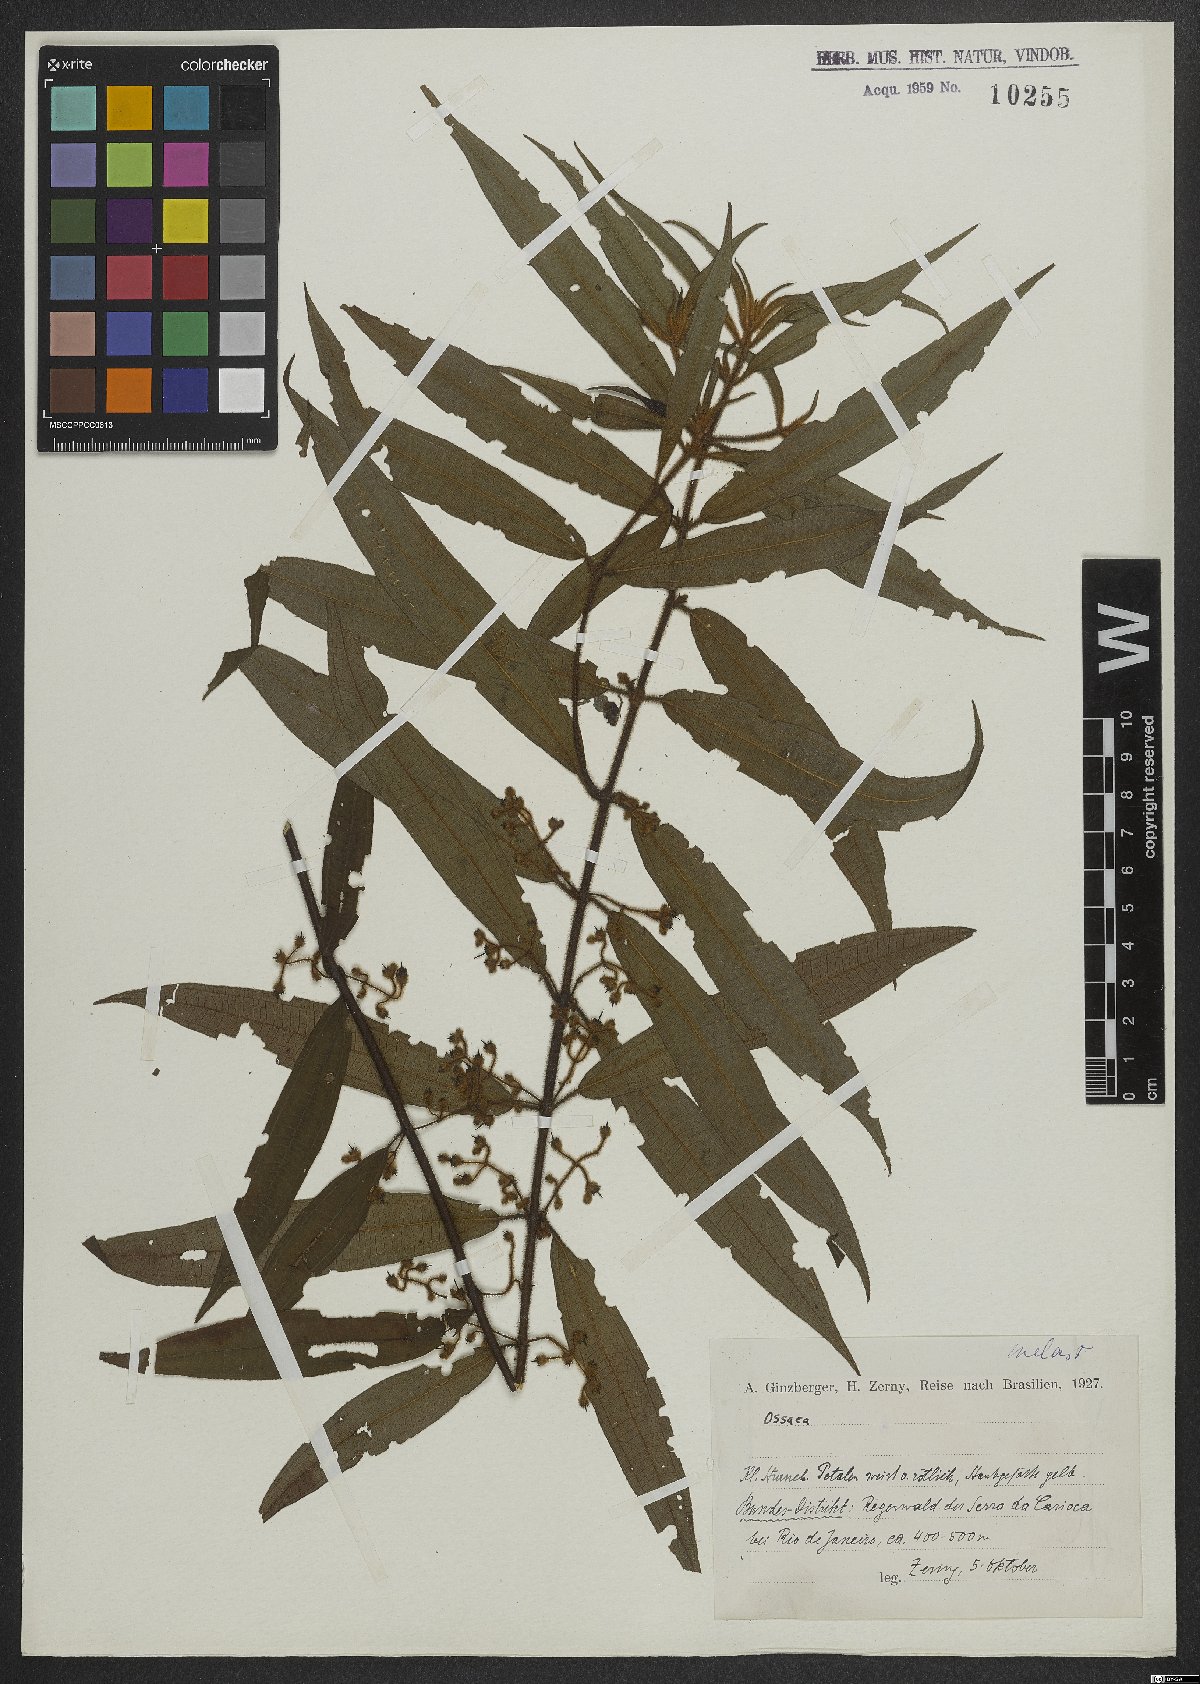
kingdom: Plantae
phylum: Tracheophyta
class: Magnoliopsida
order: Myrtales
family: Melastomataceae
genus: Ossaea
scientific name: Ossaea
